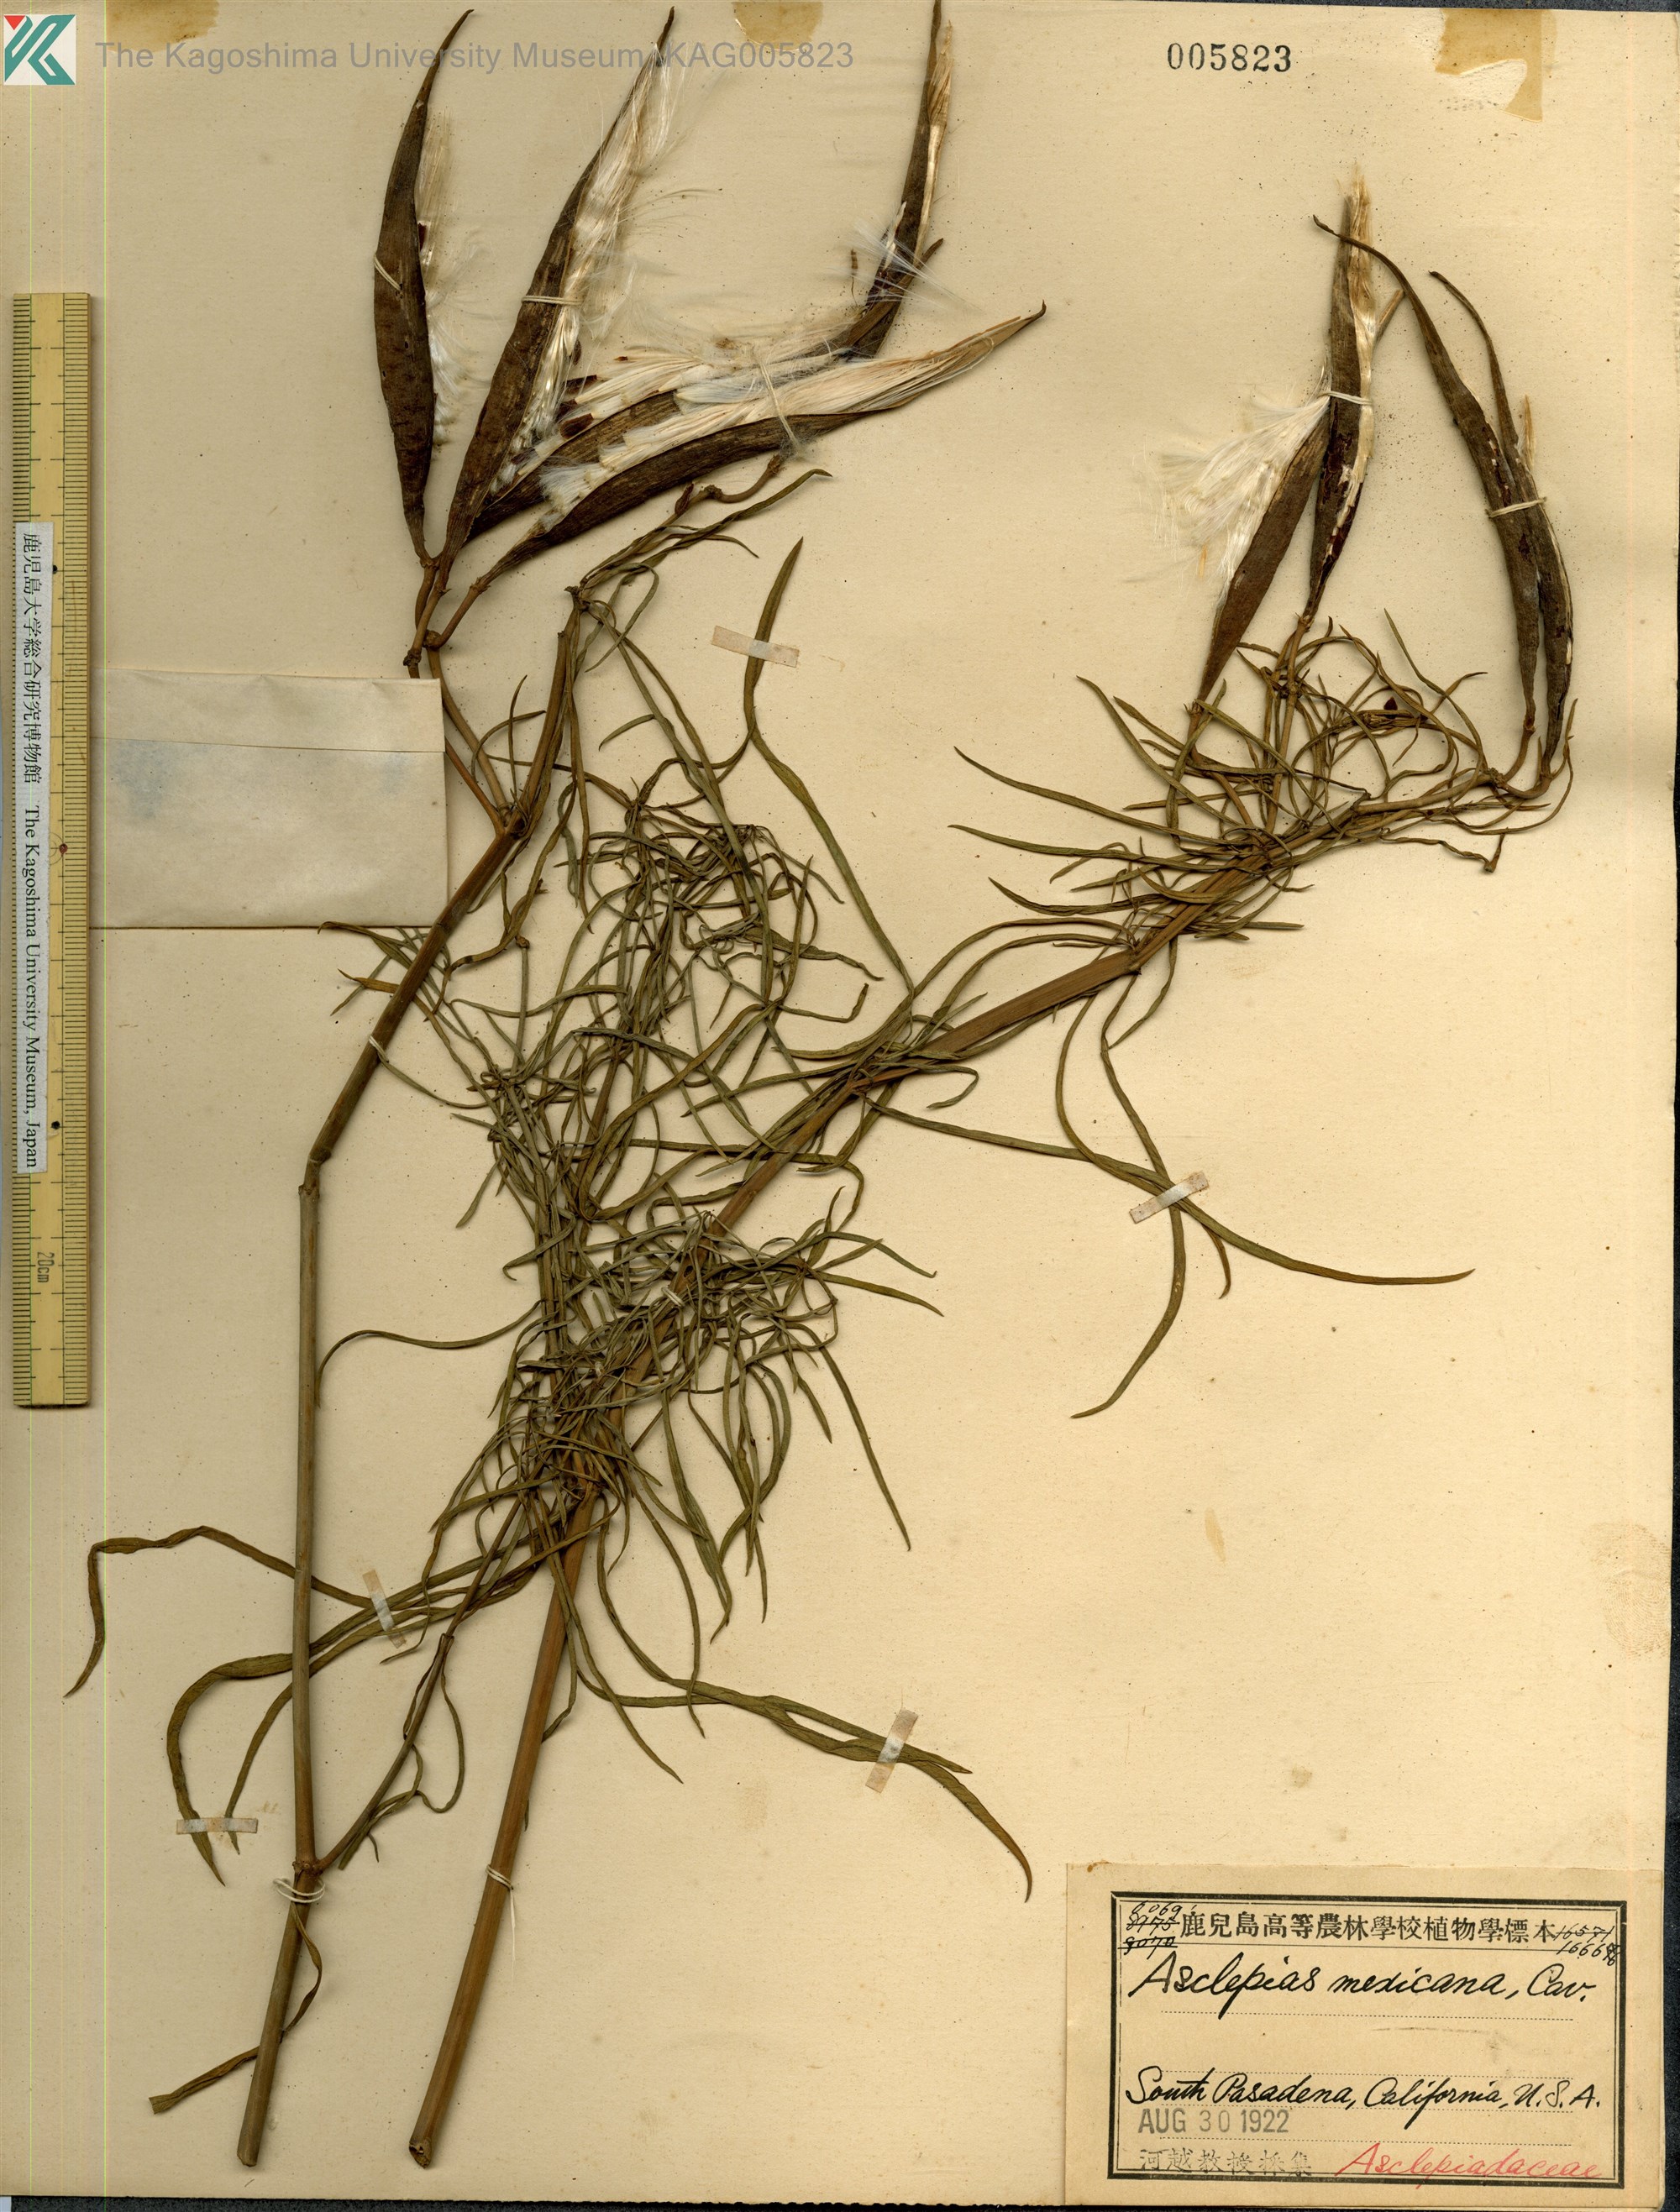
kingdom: Plantae
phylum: Tracheophyta
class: Magnoliopsida
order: Gentianales
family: Apocynaceae
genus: Asclepias
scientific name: Asclepias mexicana
